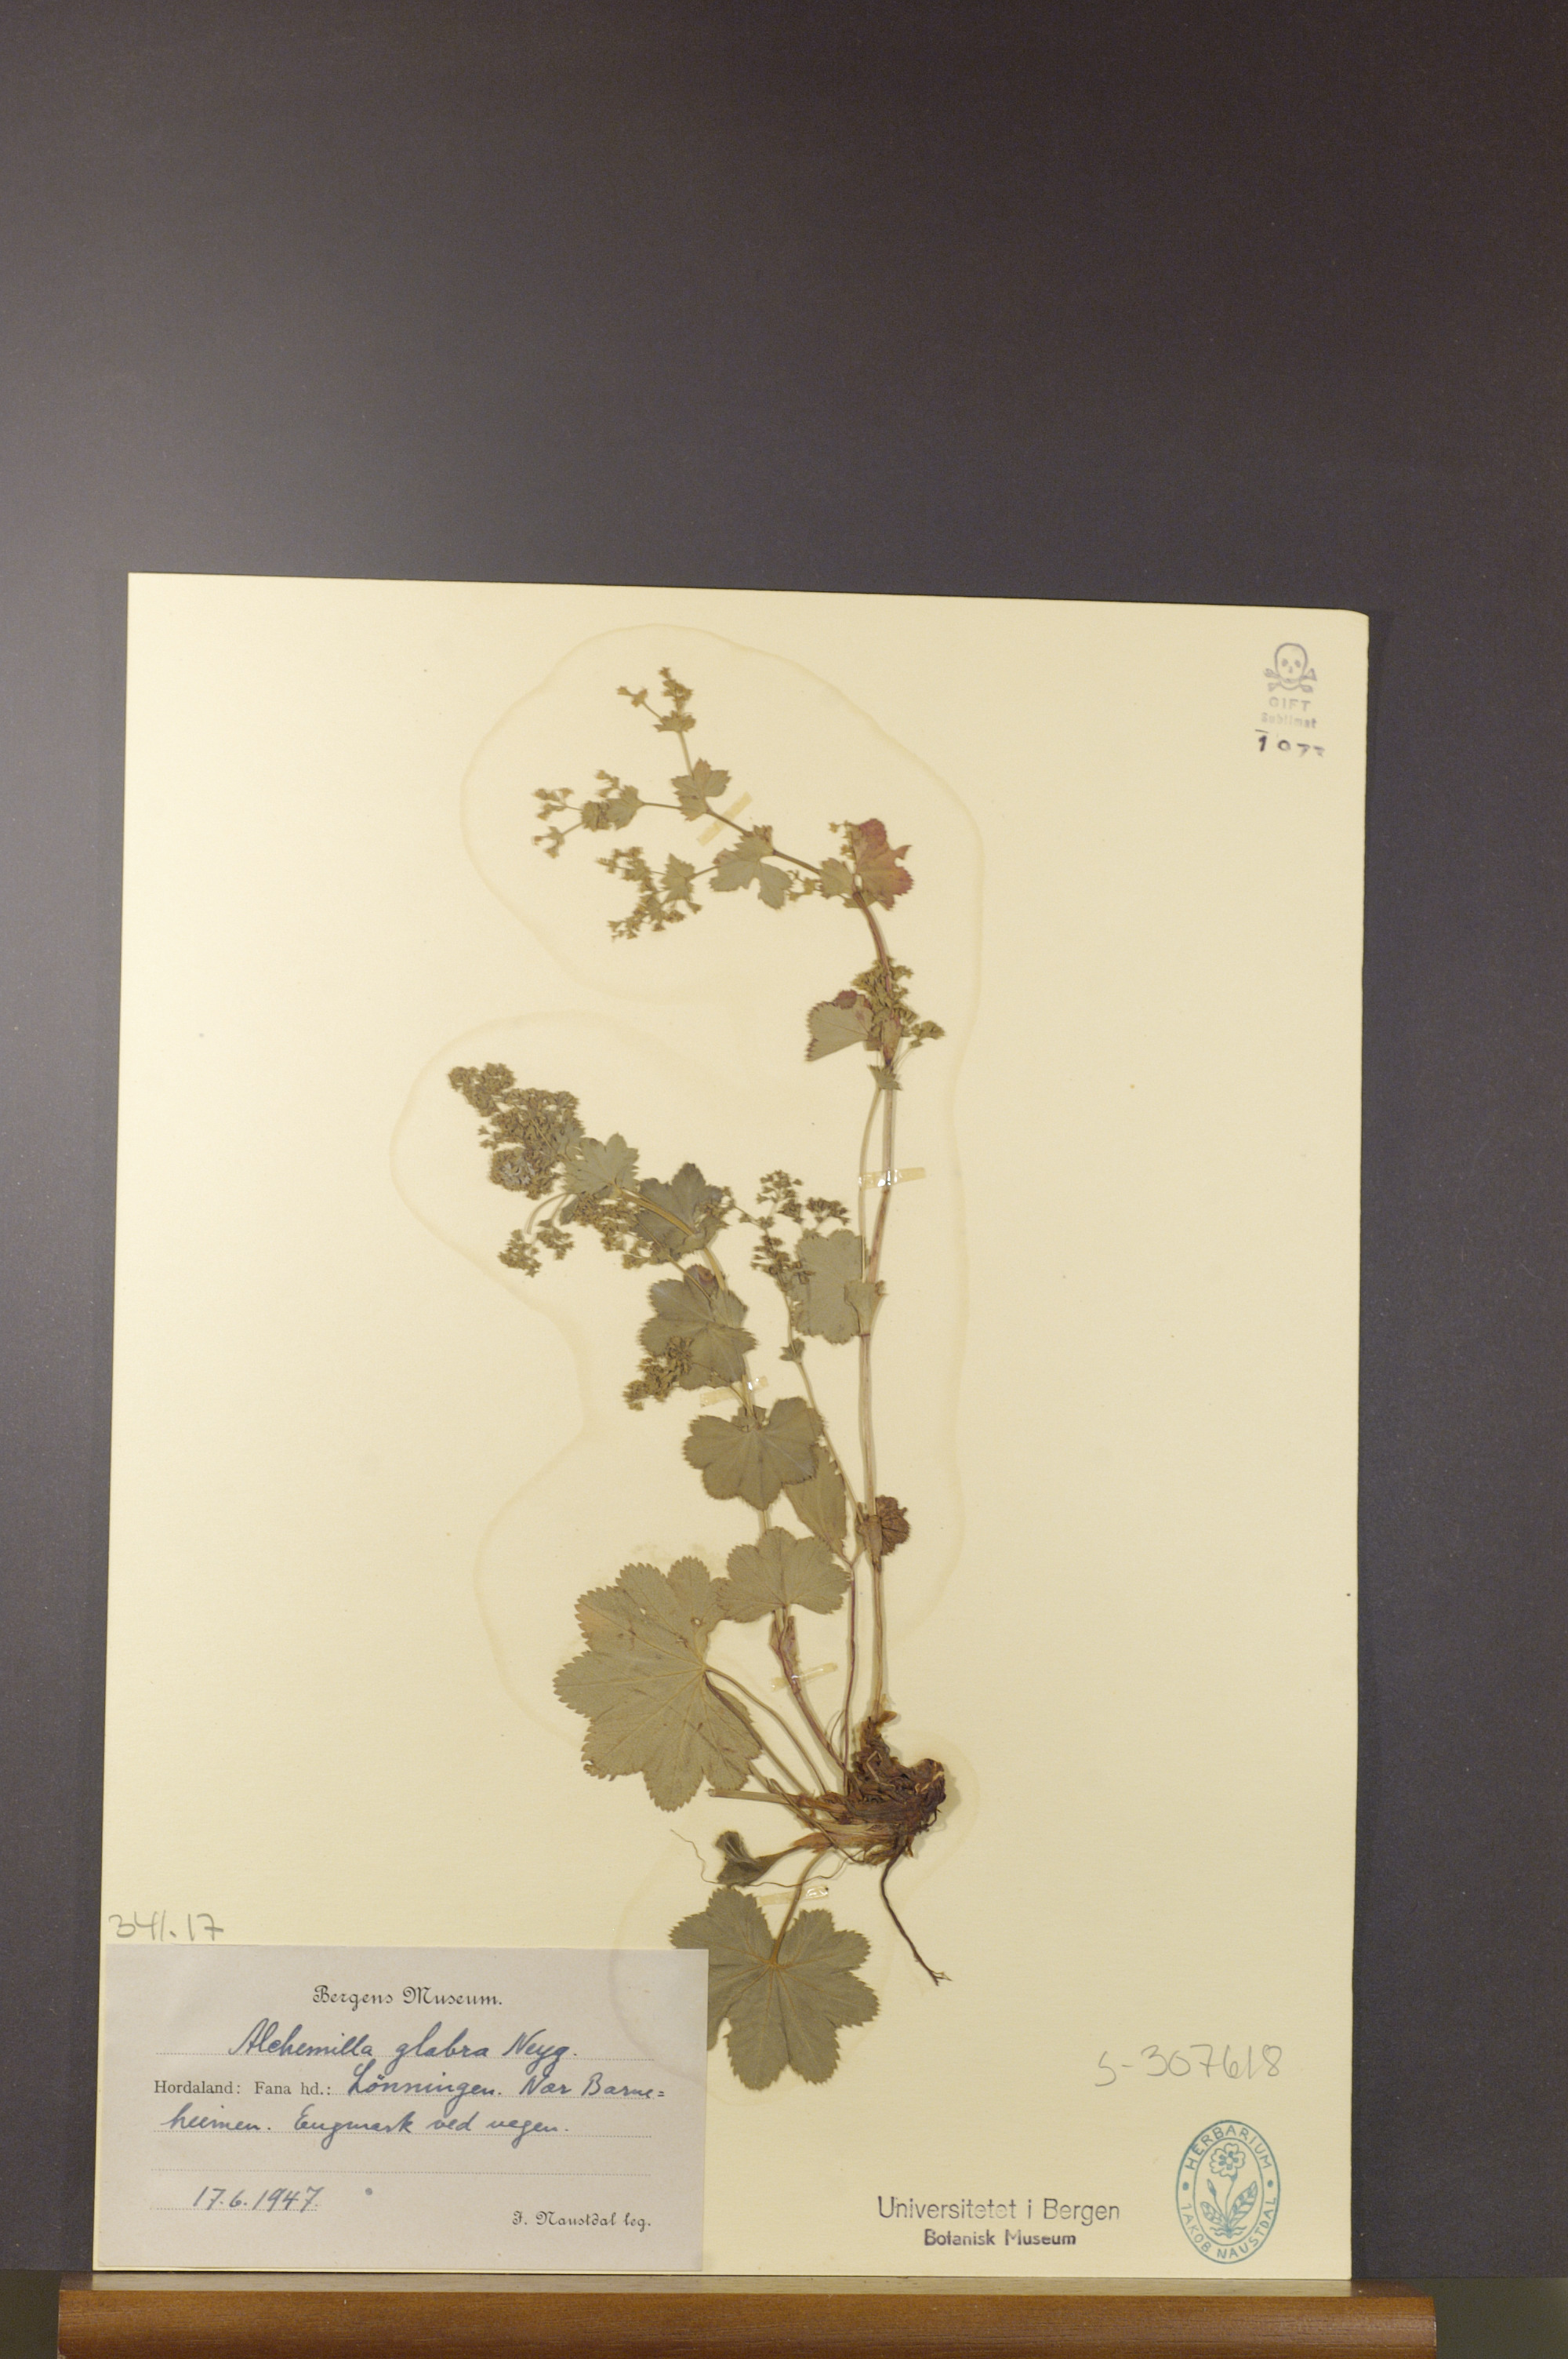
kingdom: Plantae
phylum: Tracheophyta
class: Magnoliopsida
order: Rosales
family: Rosaceae
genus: Alchemilla
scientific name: Alchemilla glabra
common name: Smooth lady's-mantle
